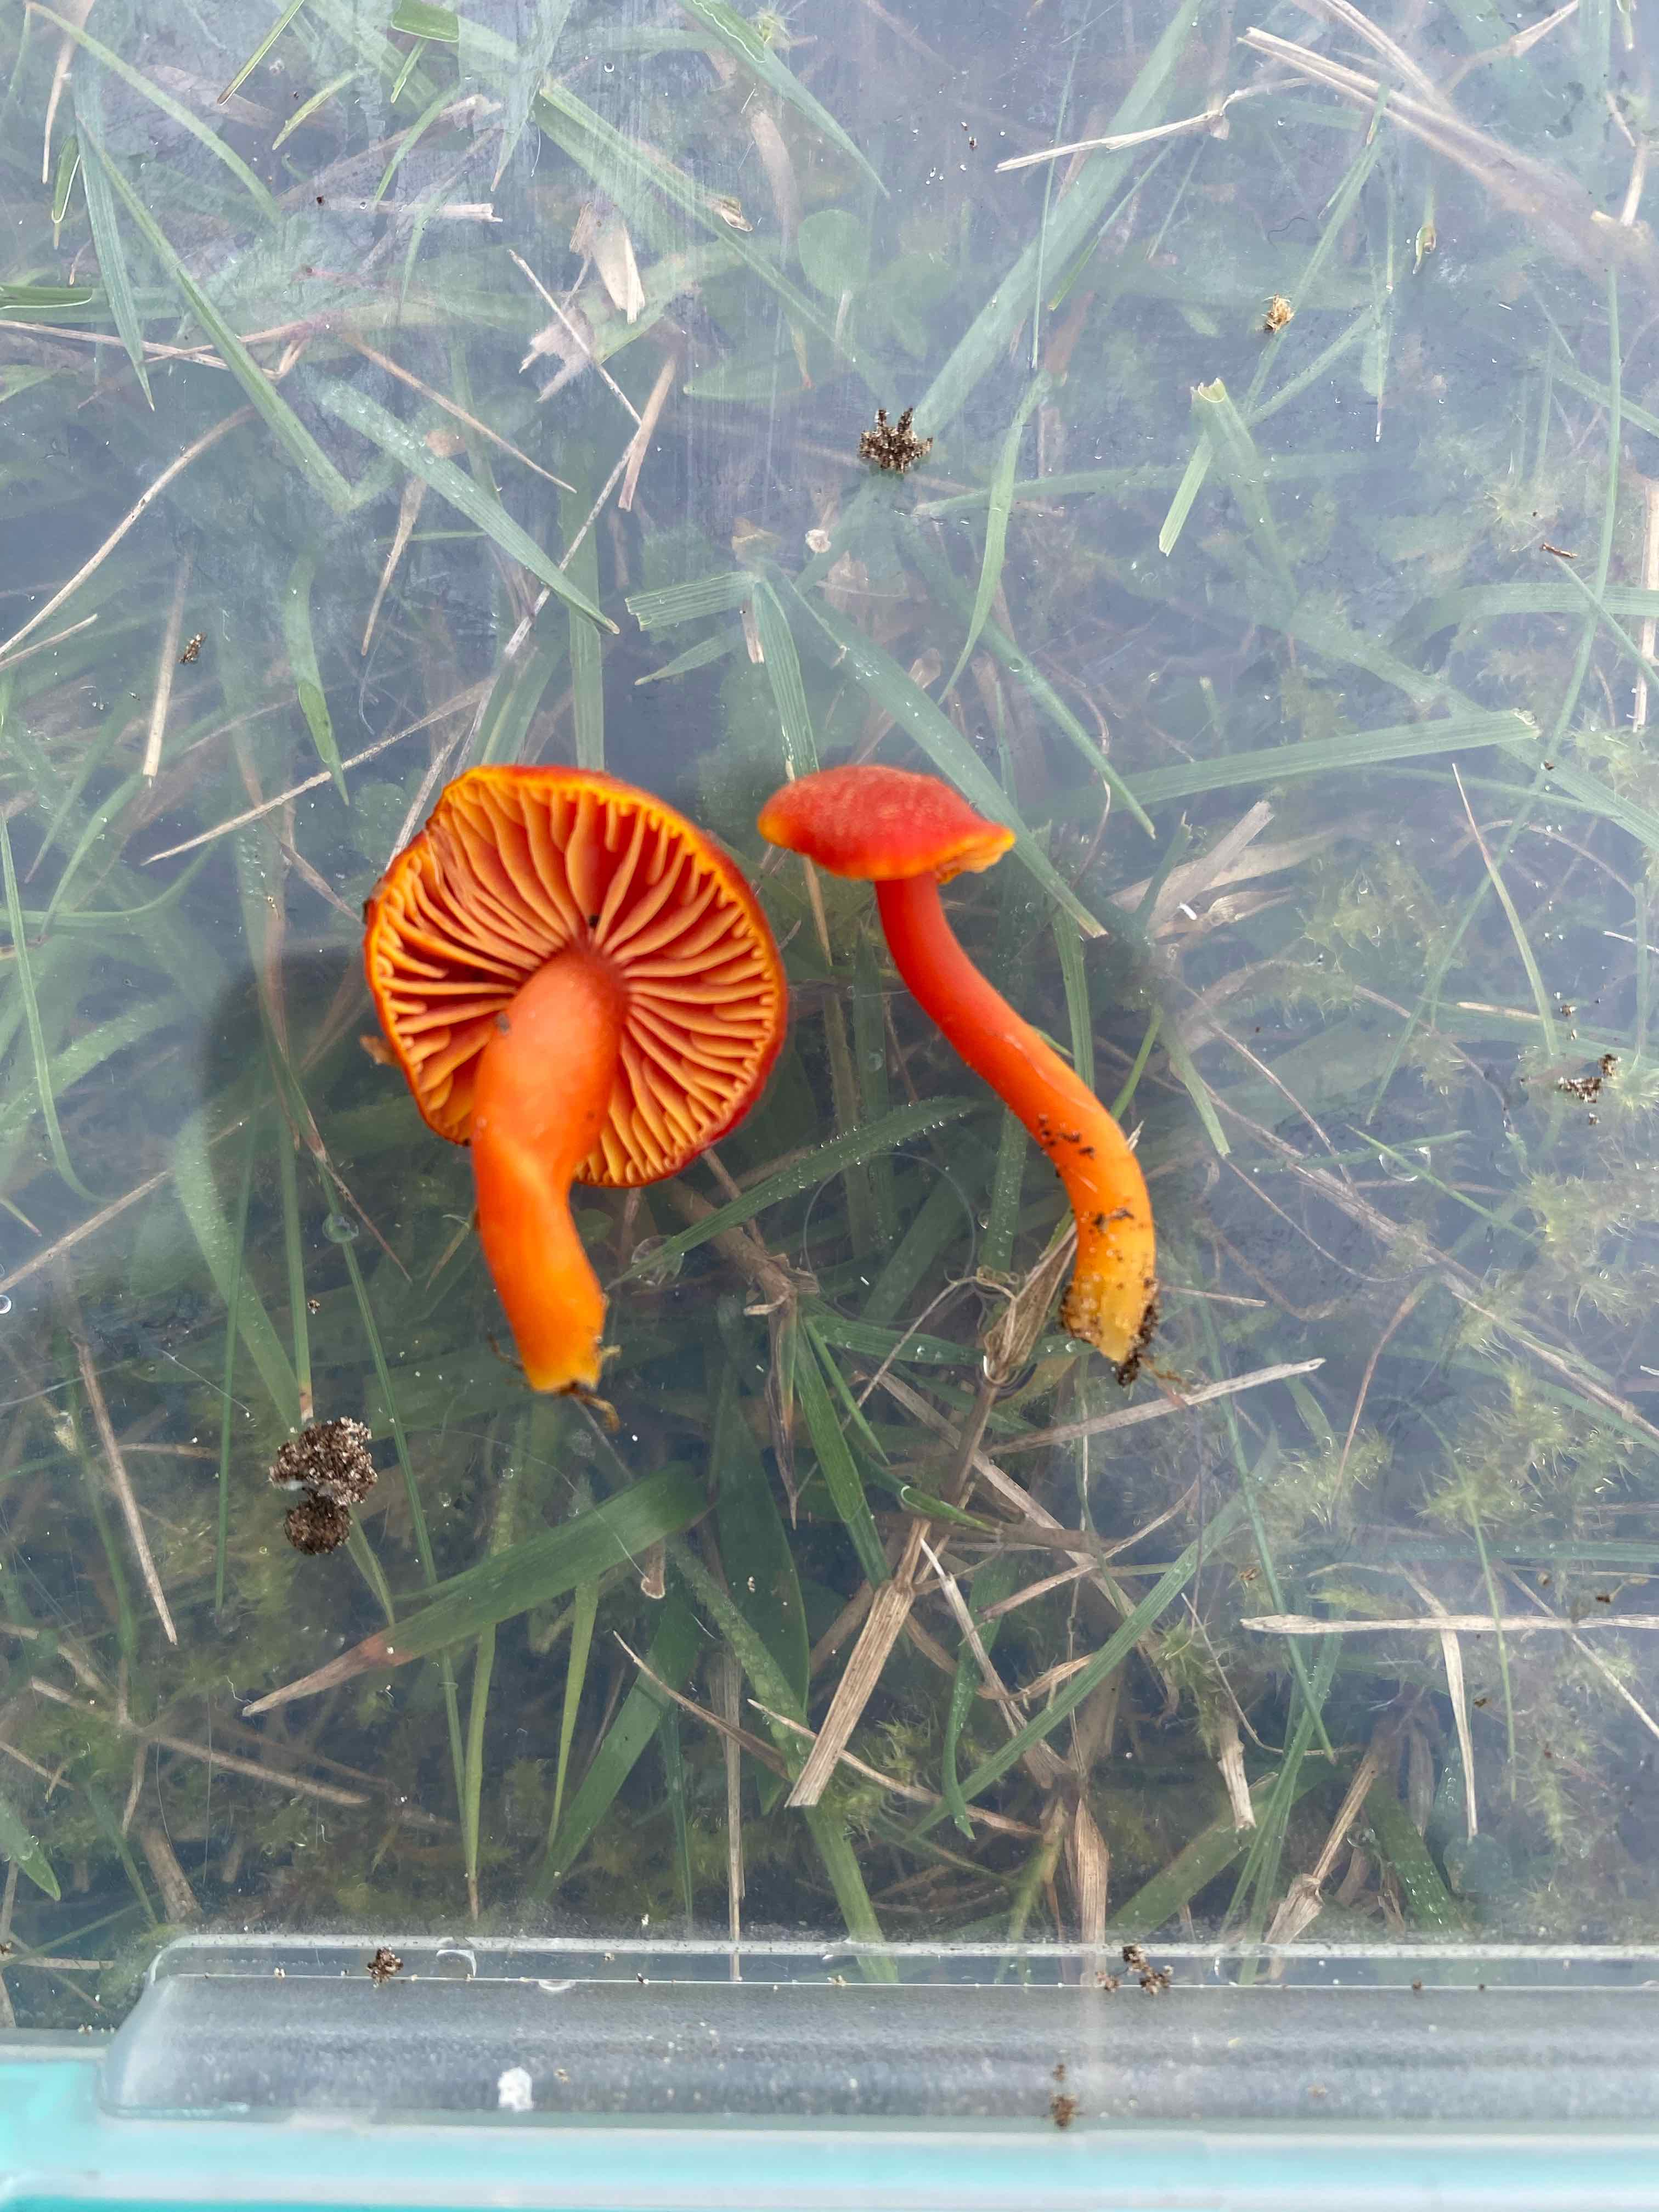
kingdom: Fungi
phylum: Basidiomycota
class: Agaricomycetes
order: Agaricales
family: Hygrophoraceae
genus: Hygrocybe
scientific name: Hygrocybe miniata
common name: mønje-vokshat
